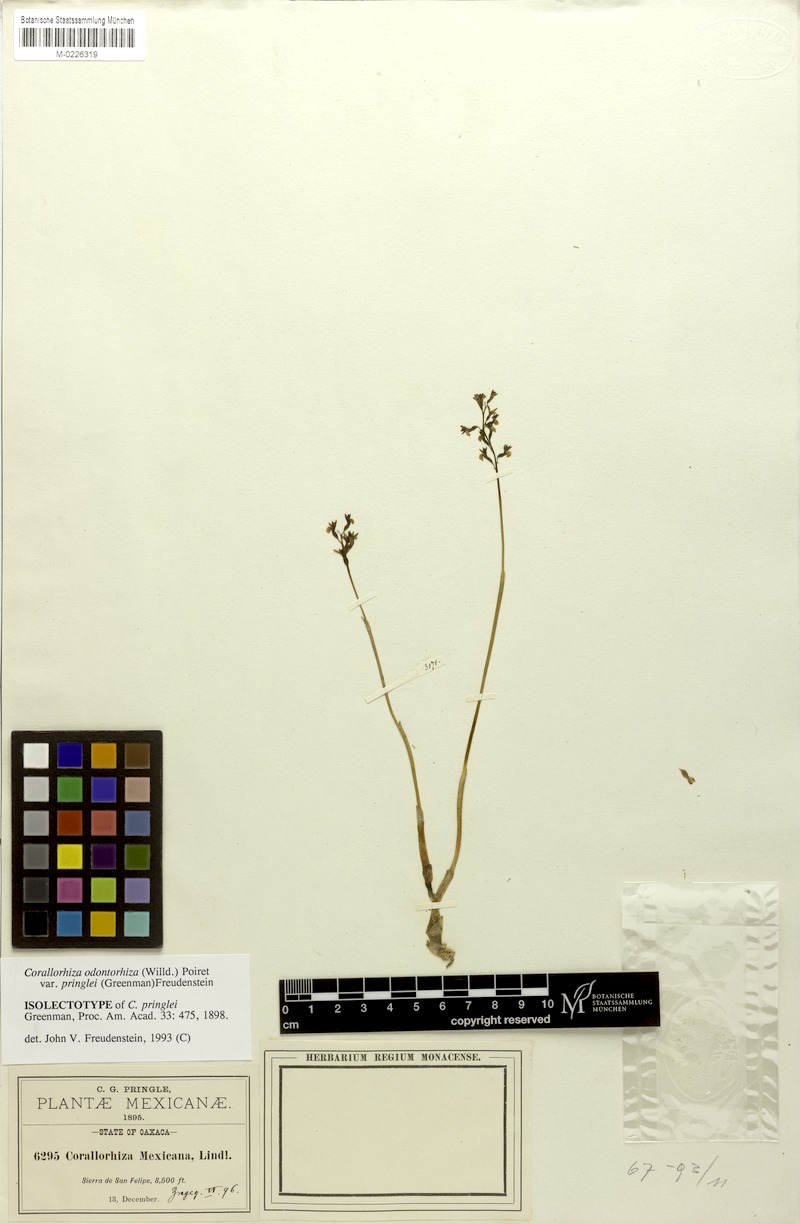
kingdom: Plantae
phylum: Tracheophyta
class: Liliopsida
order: Asparagales
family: Orchidaceae
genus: Corallorhiza
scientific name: Corallorhiza odontorhiza
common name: Autumn coralroot
